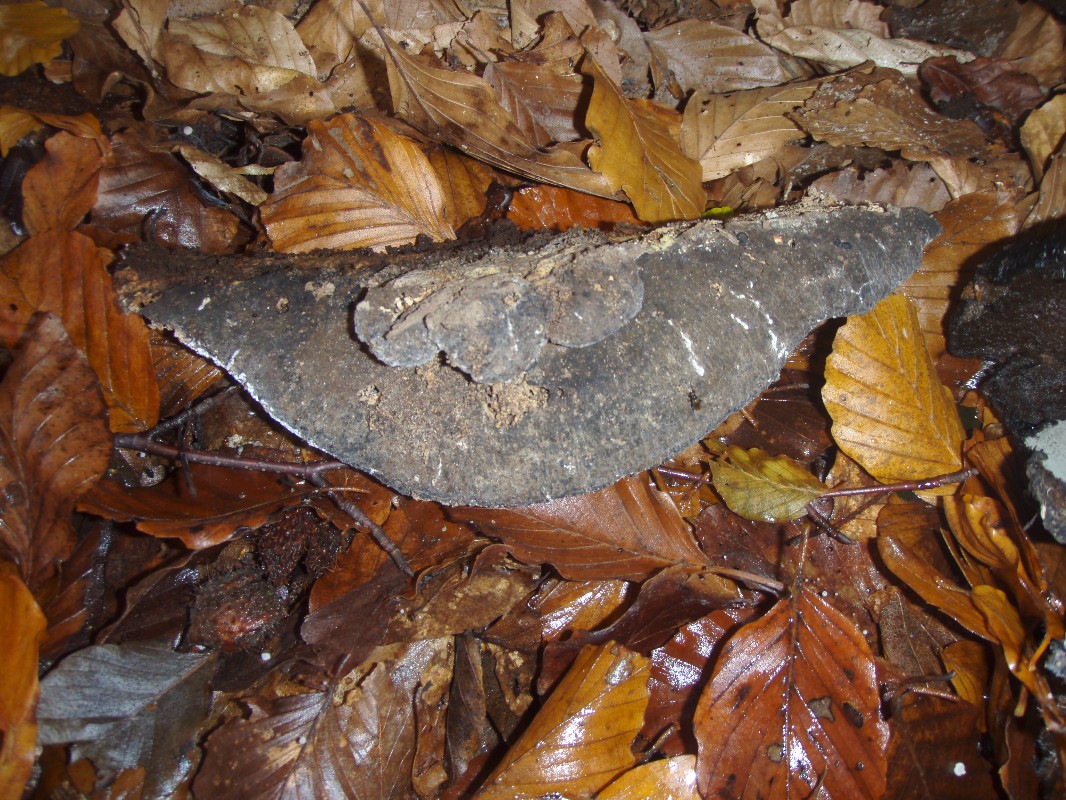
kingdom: Fungi
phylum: Basidiomycota
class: Agaricomycetes
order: Polyporales
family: Ischnodermataceae
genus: Ischnoderma
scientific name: Ischnoderma resinosum
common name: løv-tjæreporesvamp
